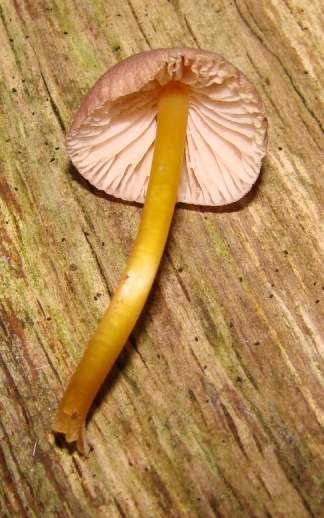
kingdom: Fungi
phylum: Basidiomycota
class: Agaricomycetes
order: Agaricales
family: Mycenaceae
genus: Mycena
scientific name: Mycena renati
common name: smuk huesvamp
